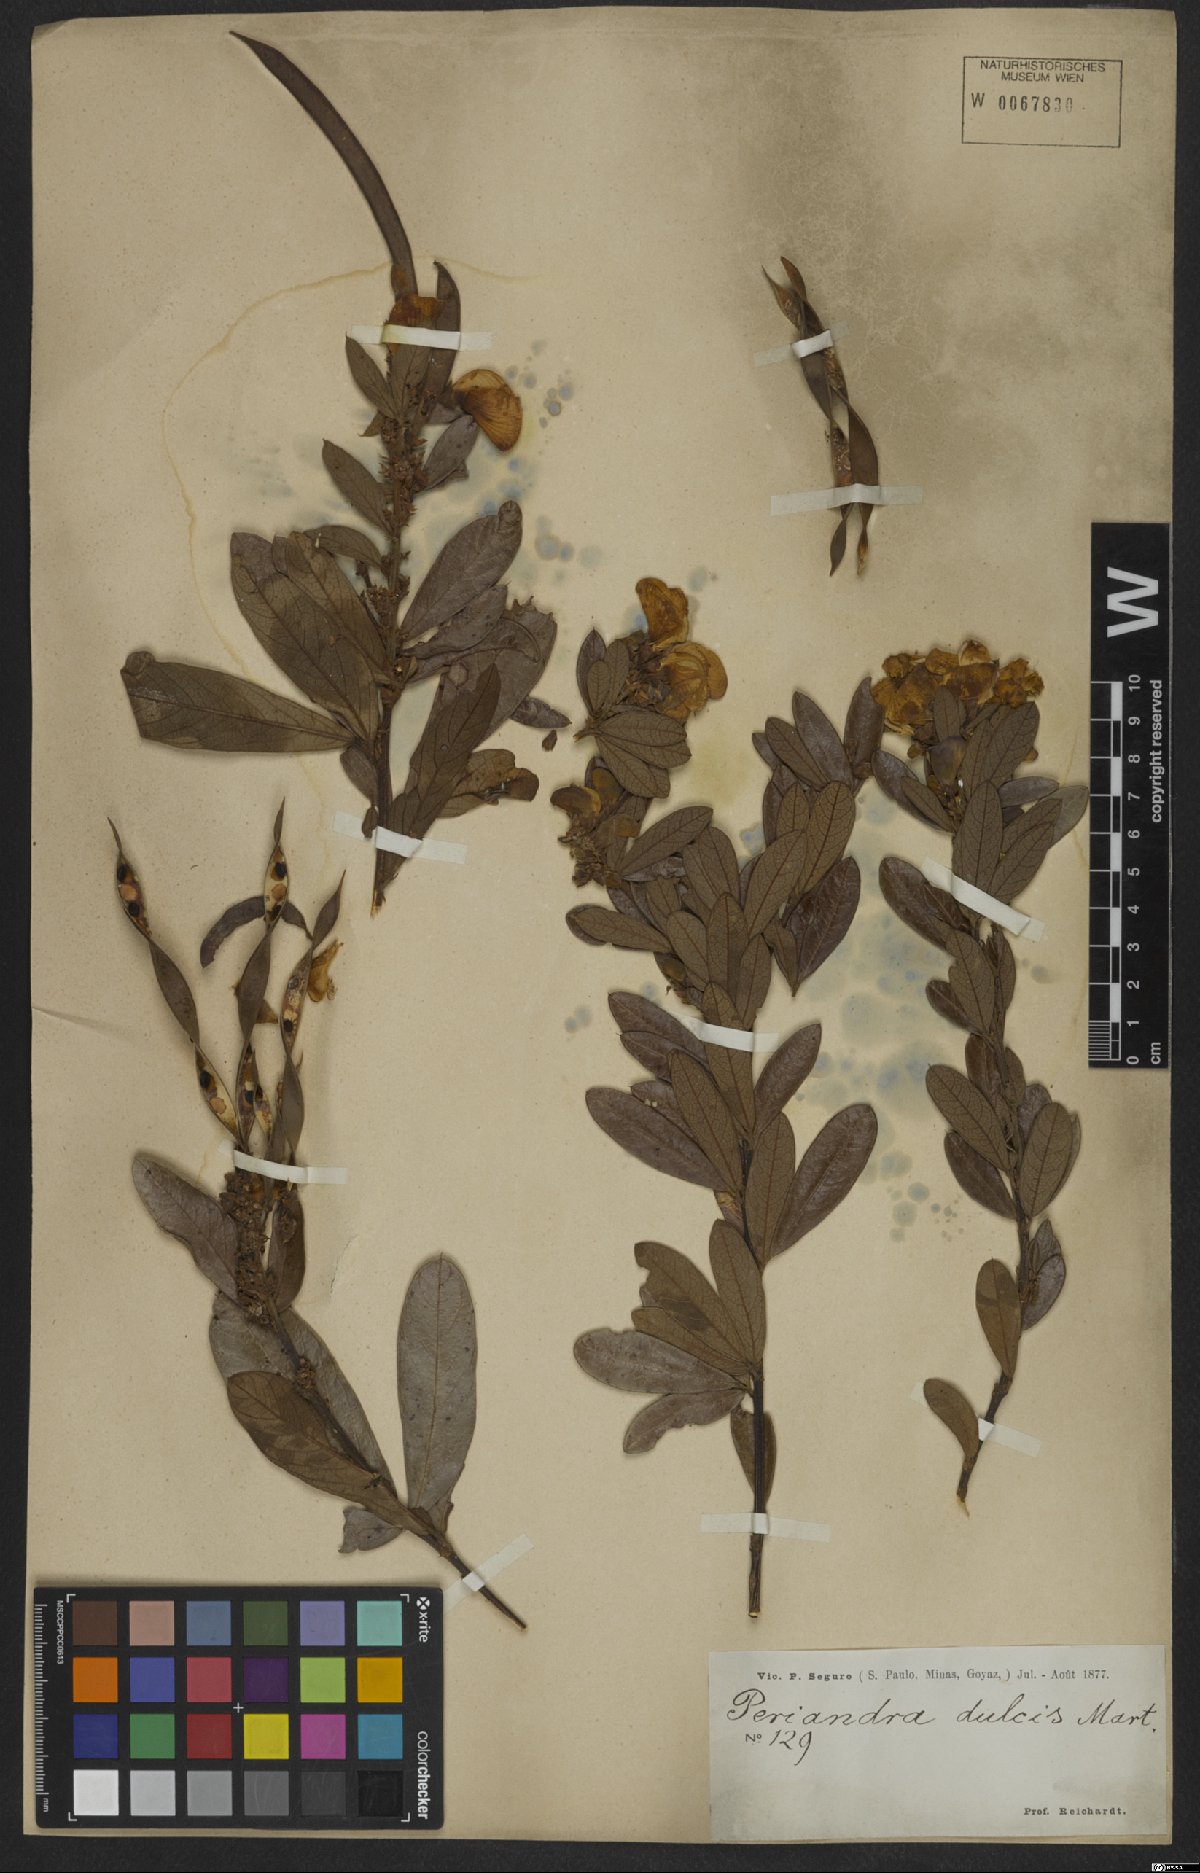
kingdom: Plantae
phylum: Tracheophyta
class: Magnoliopsida
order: Fabales
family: Fabaceae
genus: Periandra
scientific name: Periandra mediterranea
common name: Brazilian licorice
